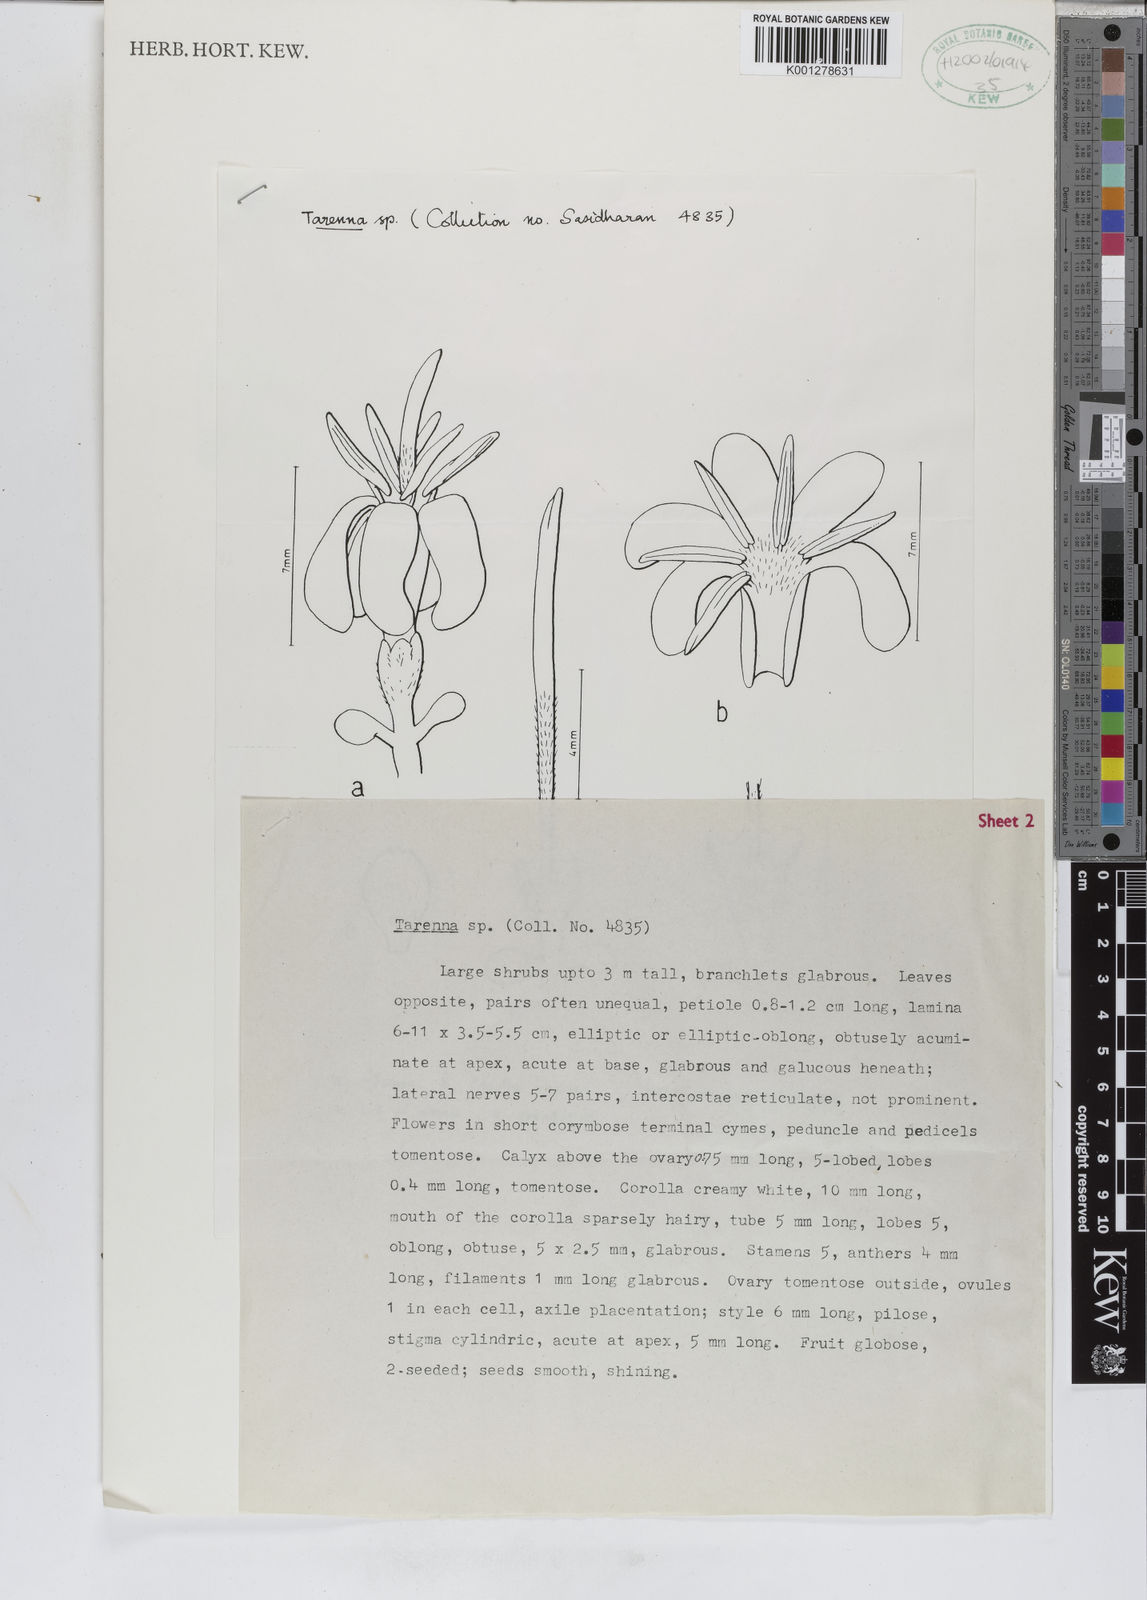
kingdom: Plantae
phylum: Tracheophyta
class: Magnoliopsida
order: Gentianales
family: Rubiaceae
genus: Tarenna
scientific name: Tarenna trichurensis
